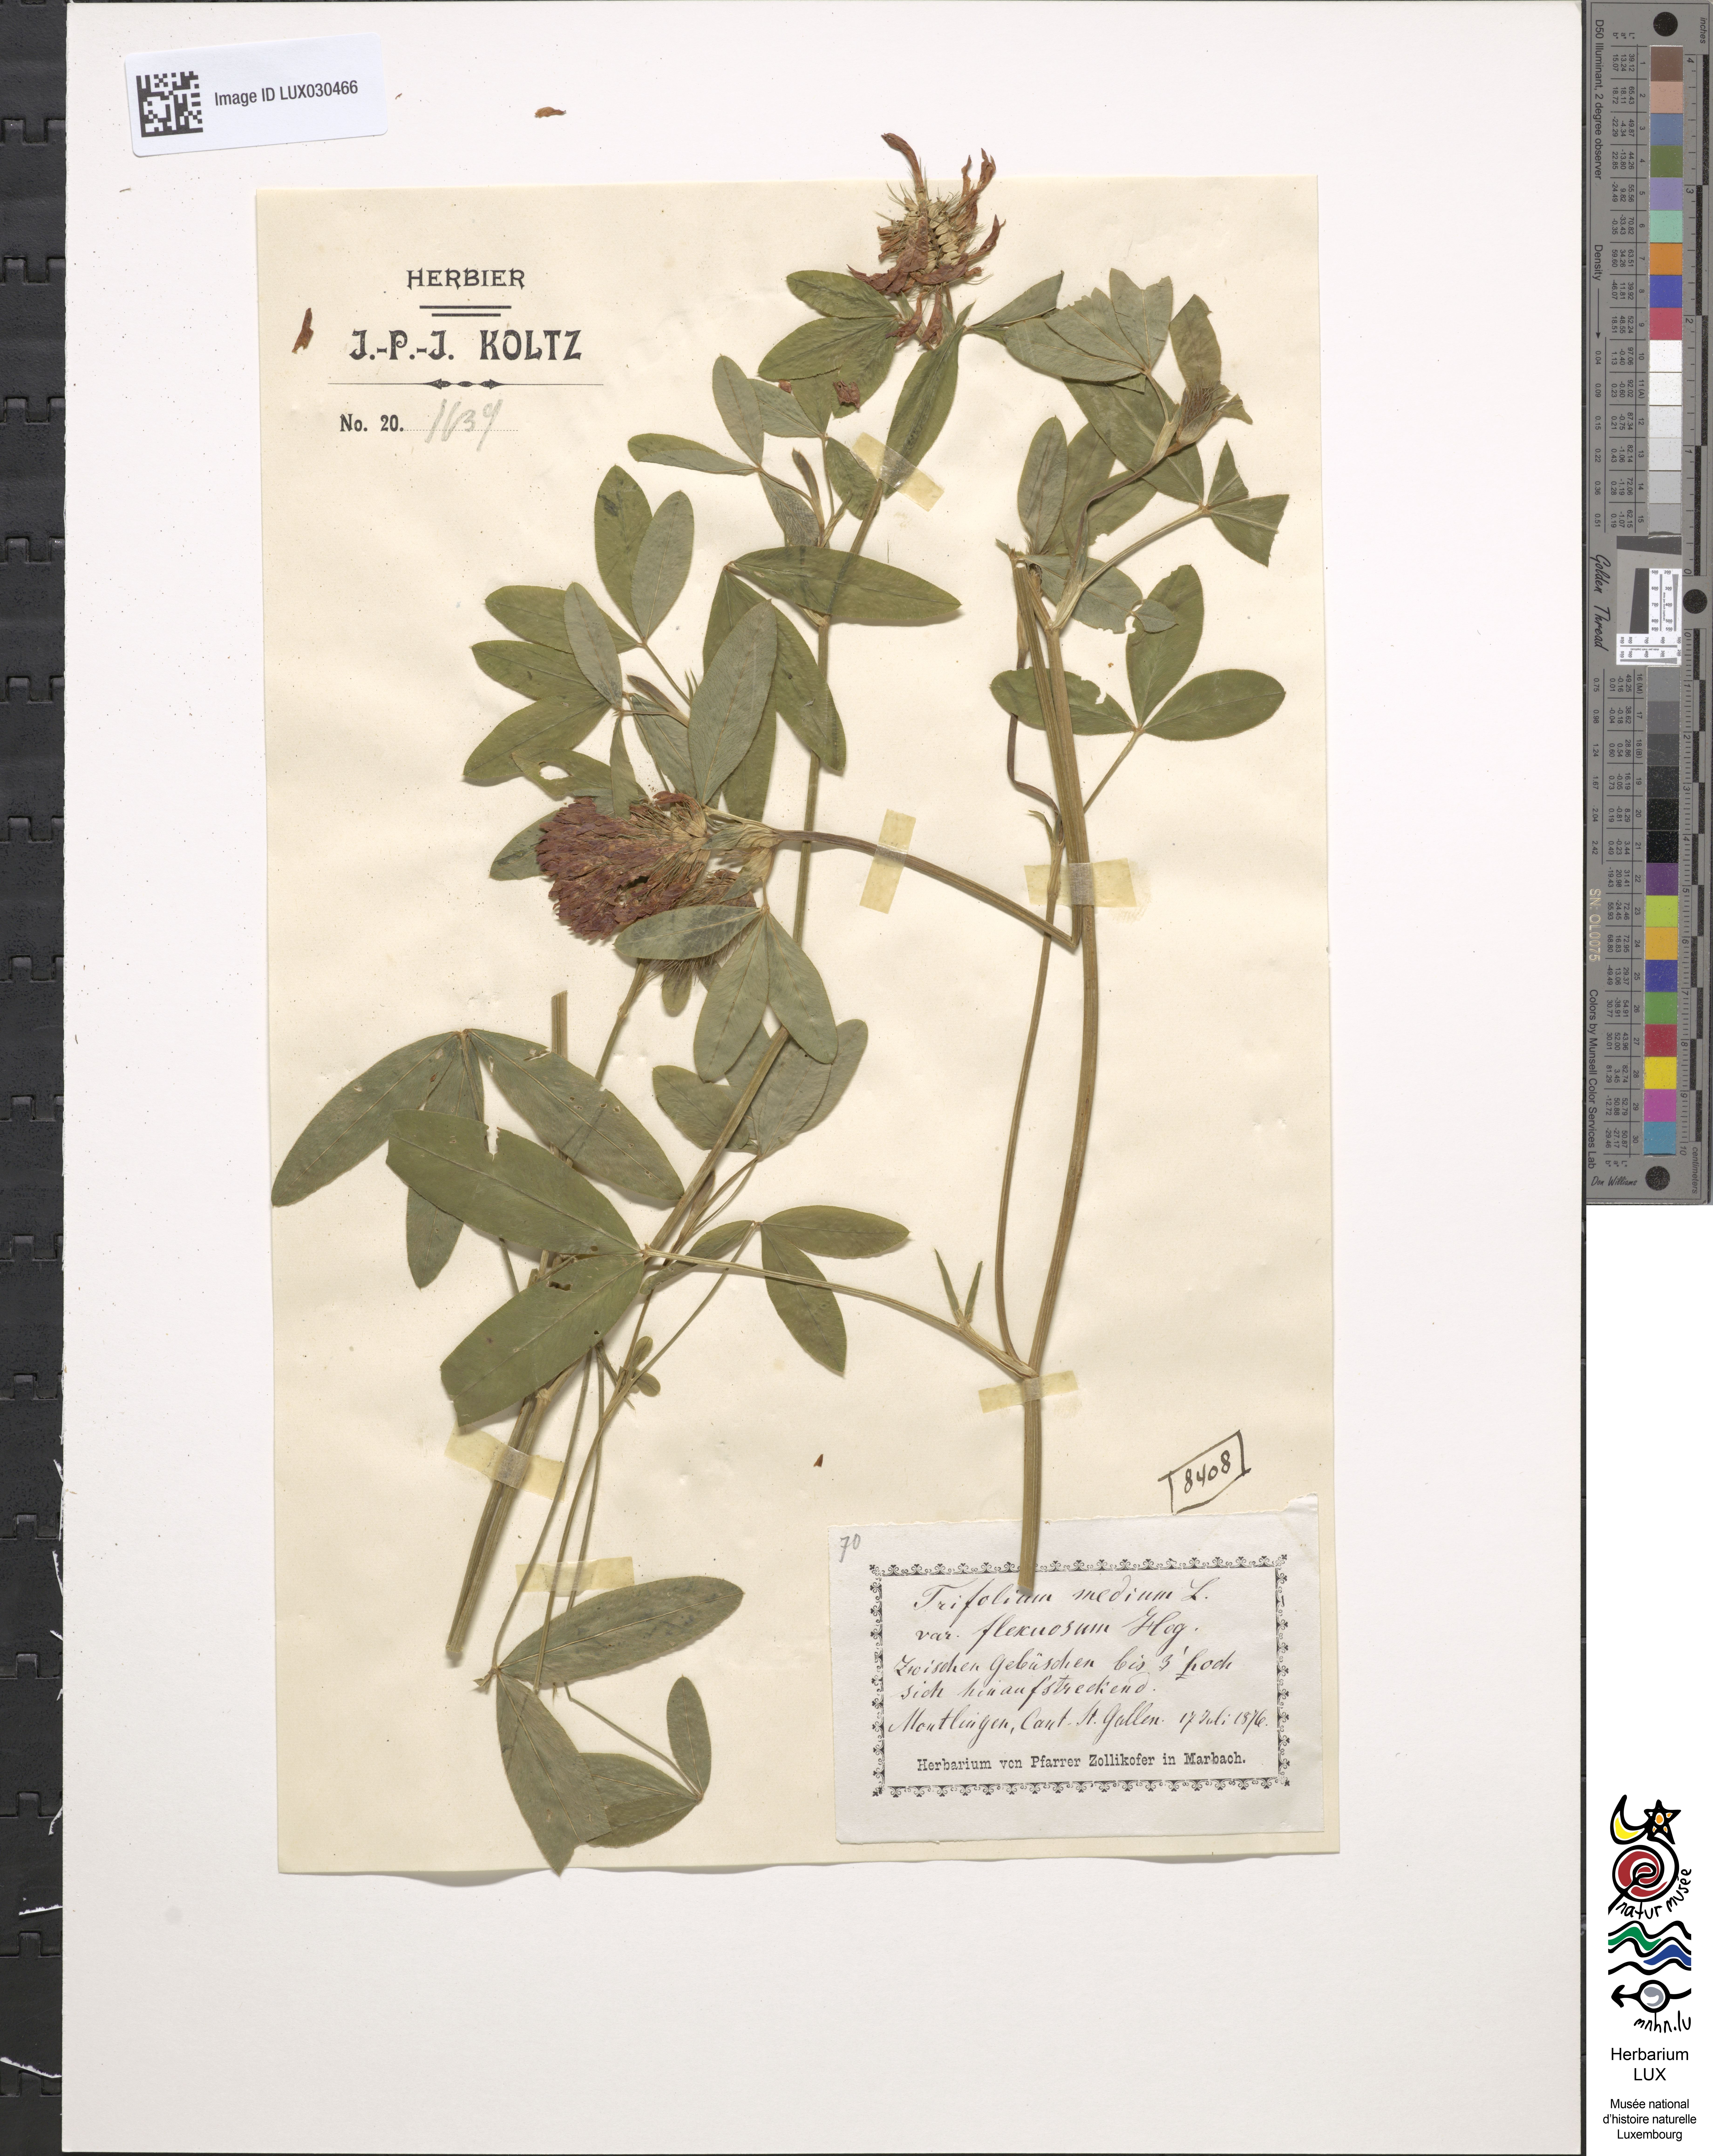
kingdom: Plantae
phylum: Tracheophyta
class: Magnoliopsida
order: Fabales
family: Fabaceae
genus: Trifolium
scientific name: Trifolium medium
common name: Zigzag clover
